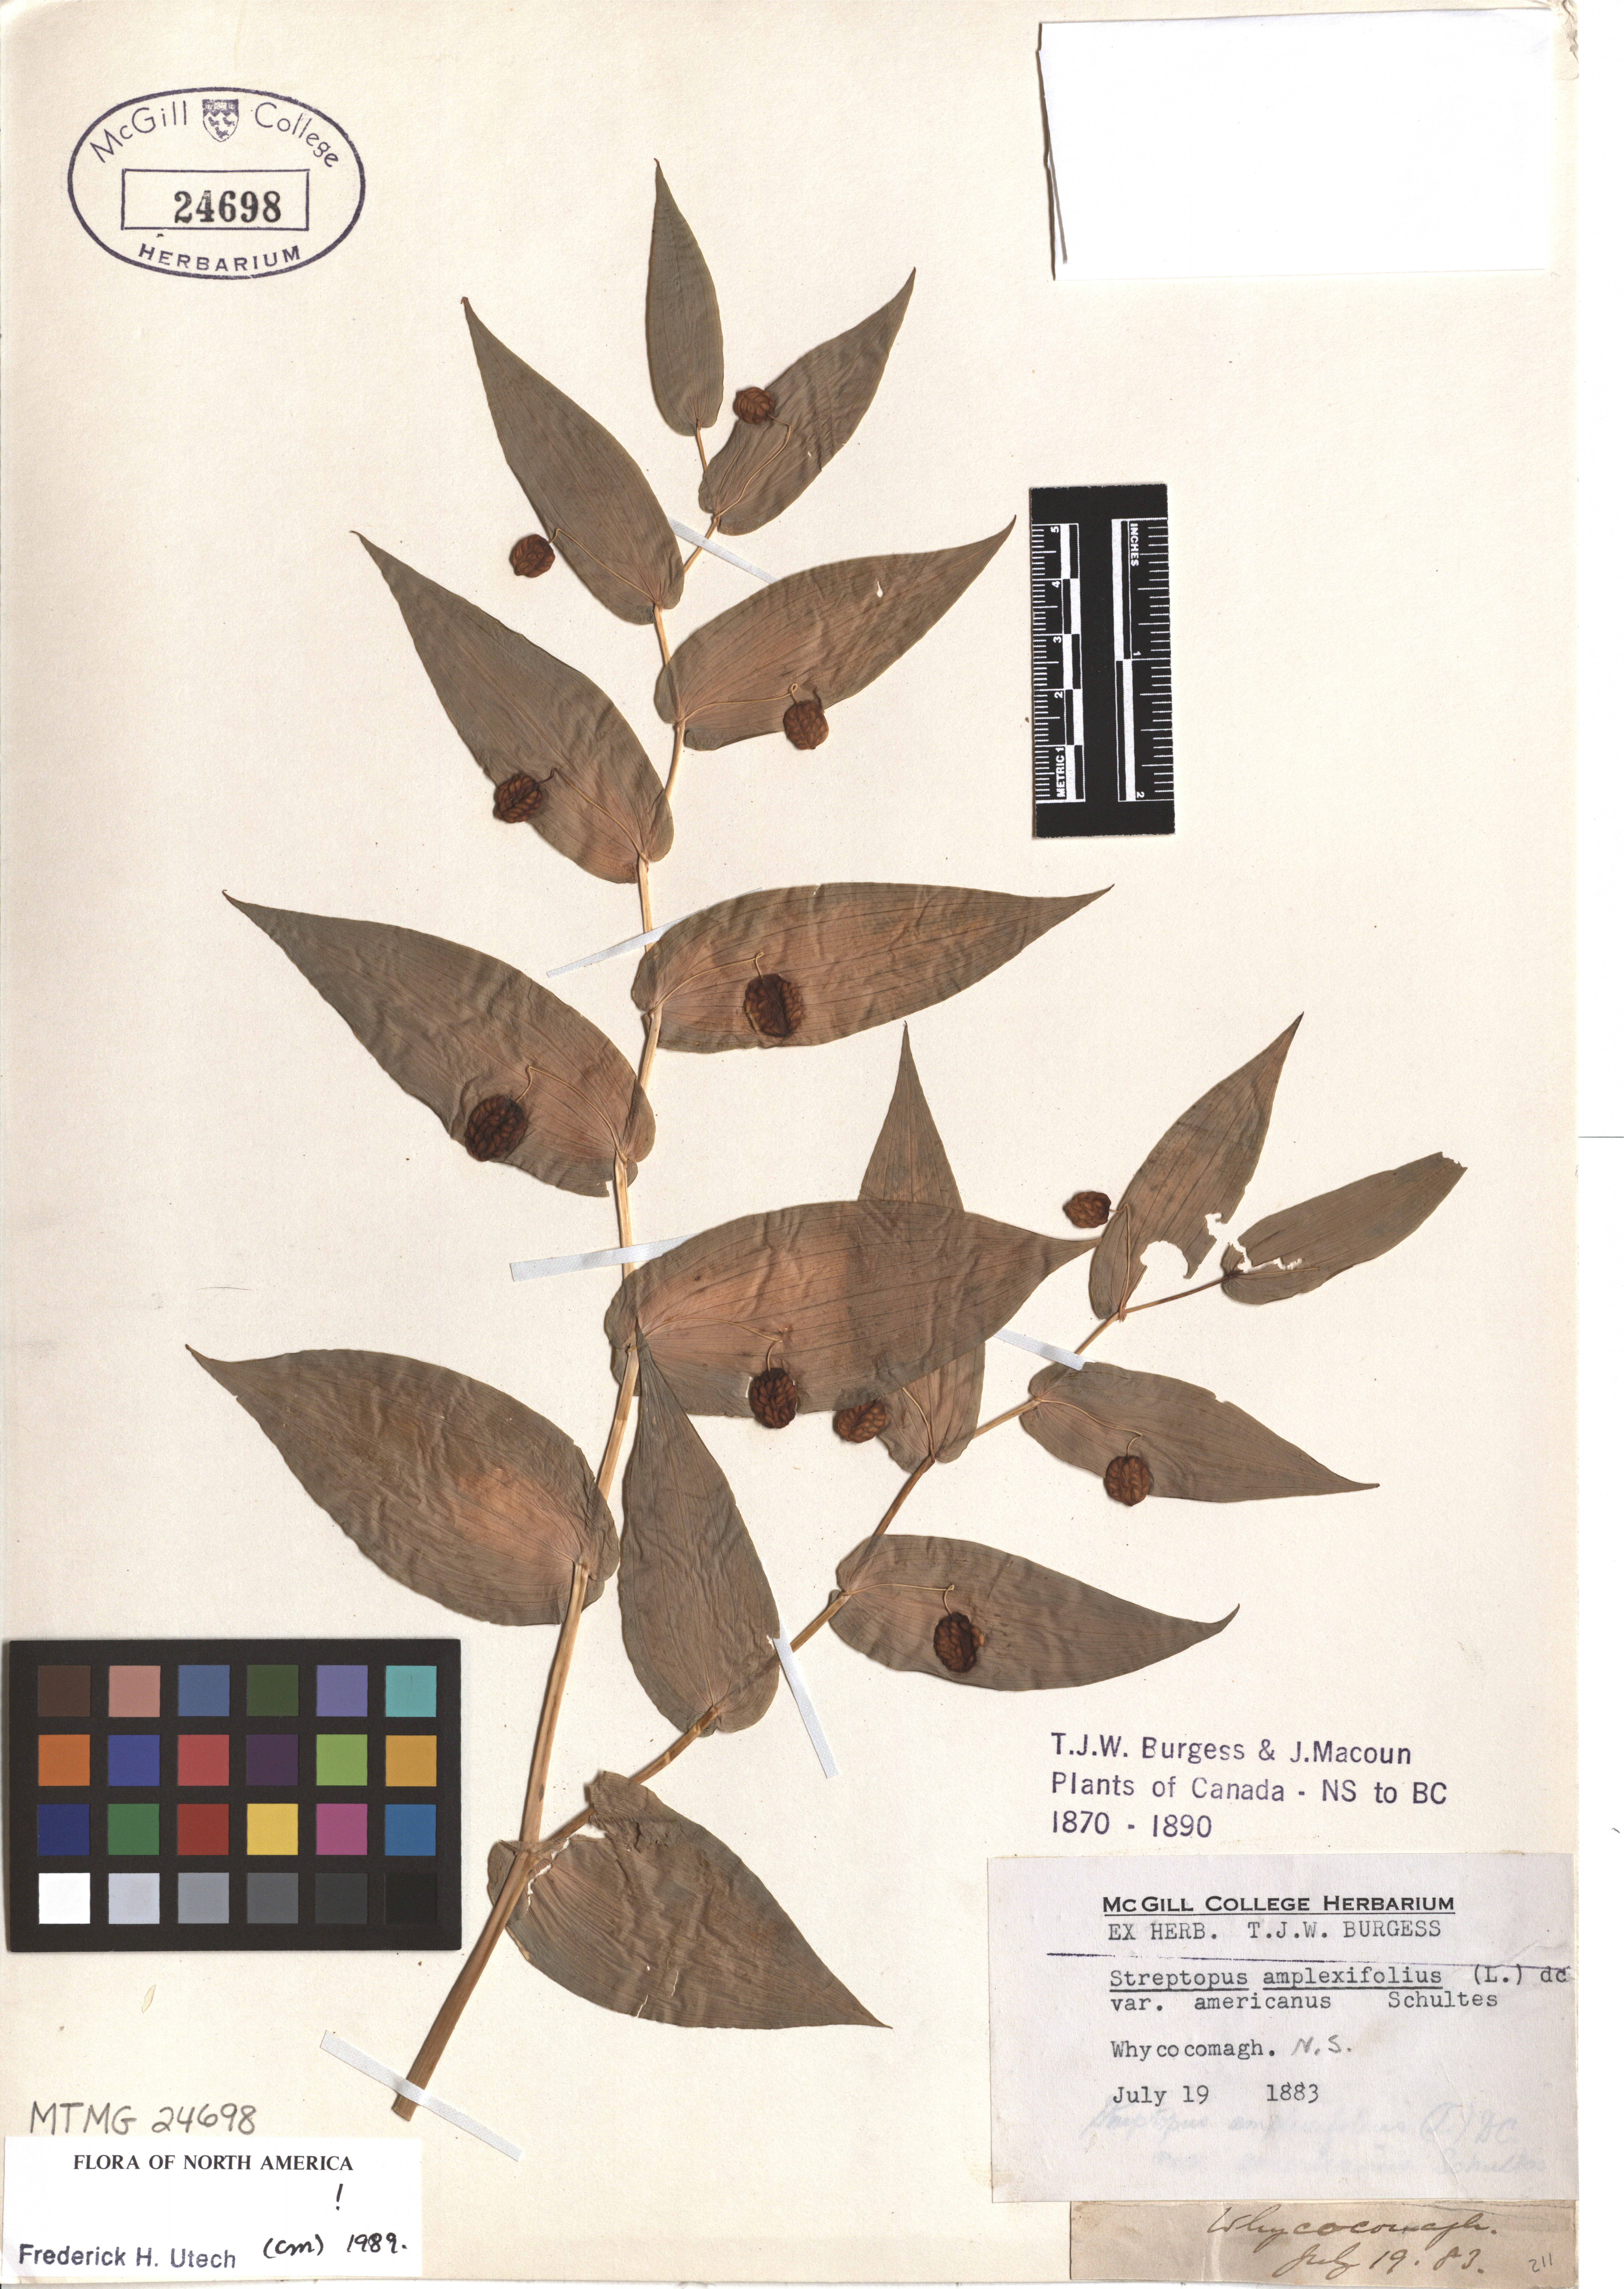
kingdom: Plantae
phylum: Tracheophyta
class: Liliopsida
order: Liliales
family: Liliaceae
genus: Streptopus
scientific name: Streptopus amplexifolius
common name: Clasp twisted stalk
